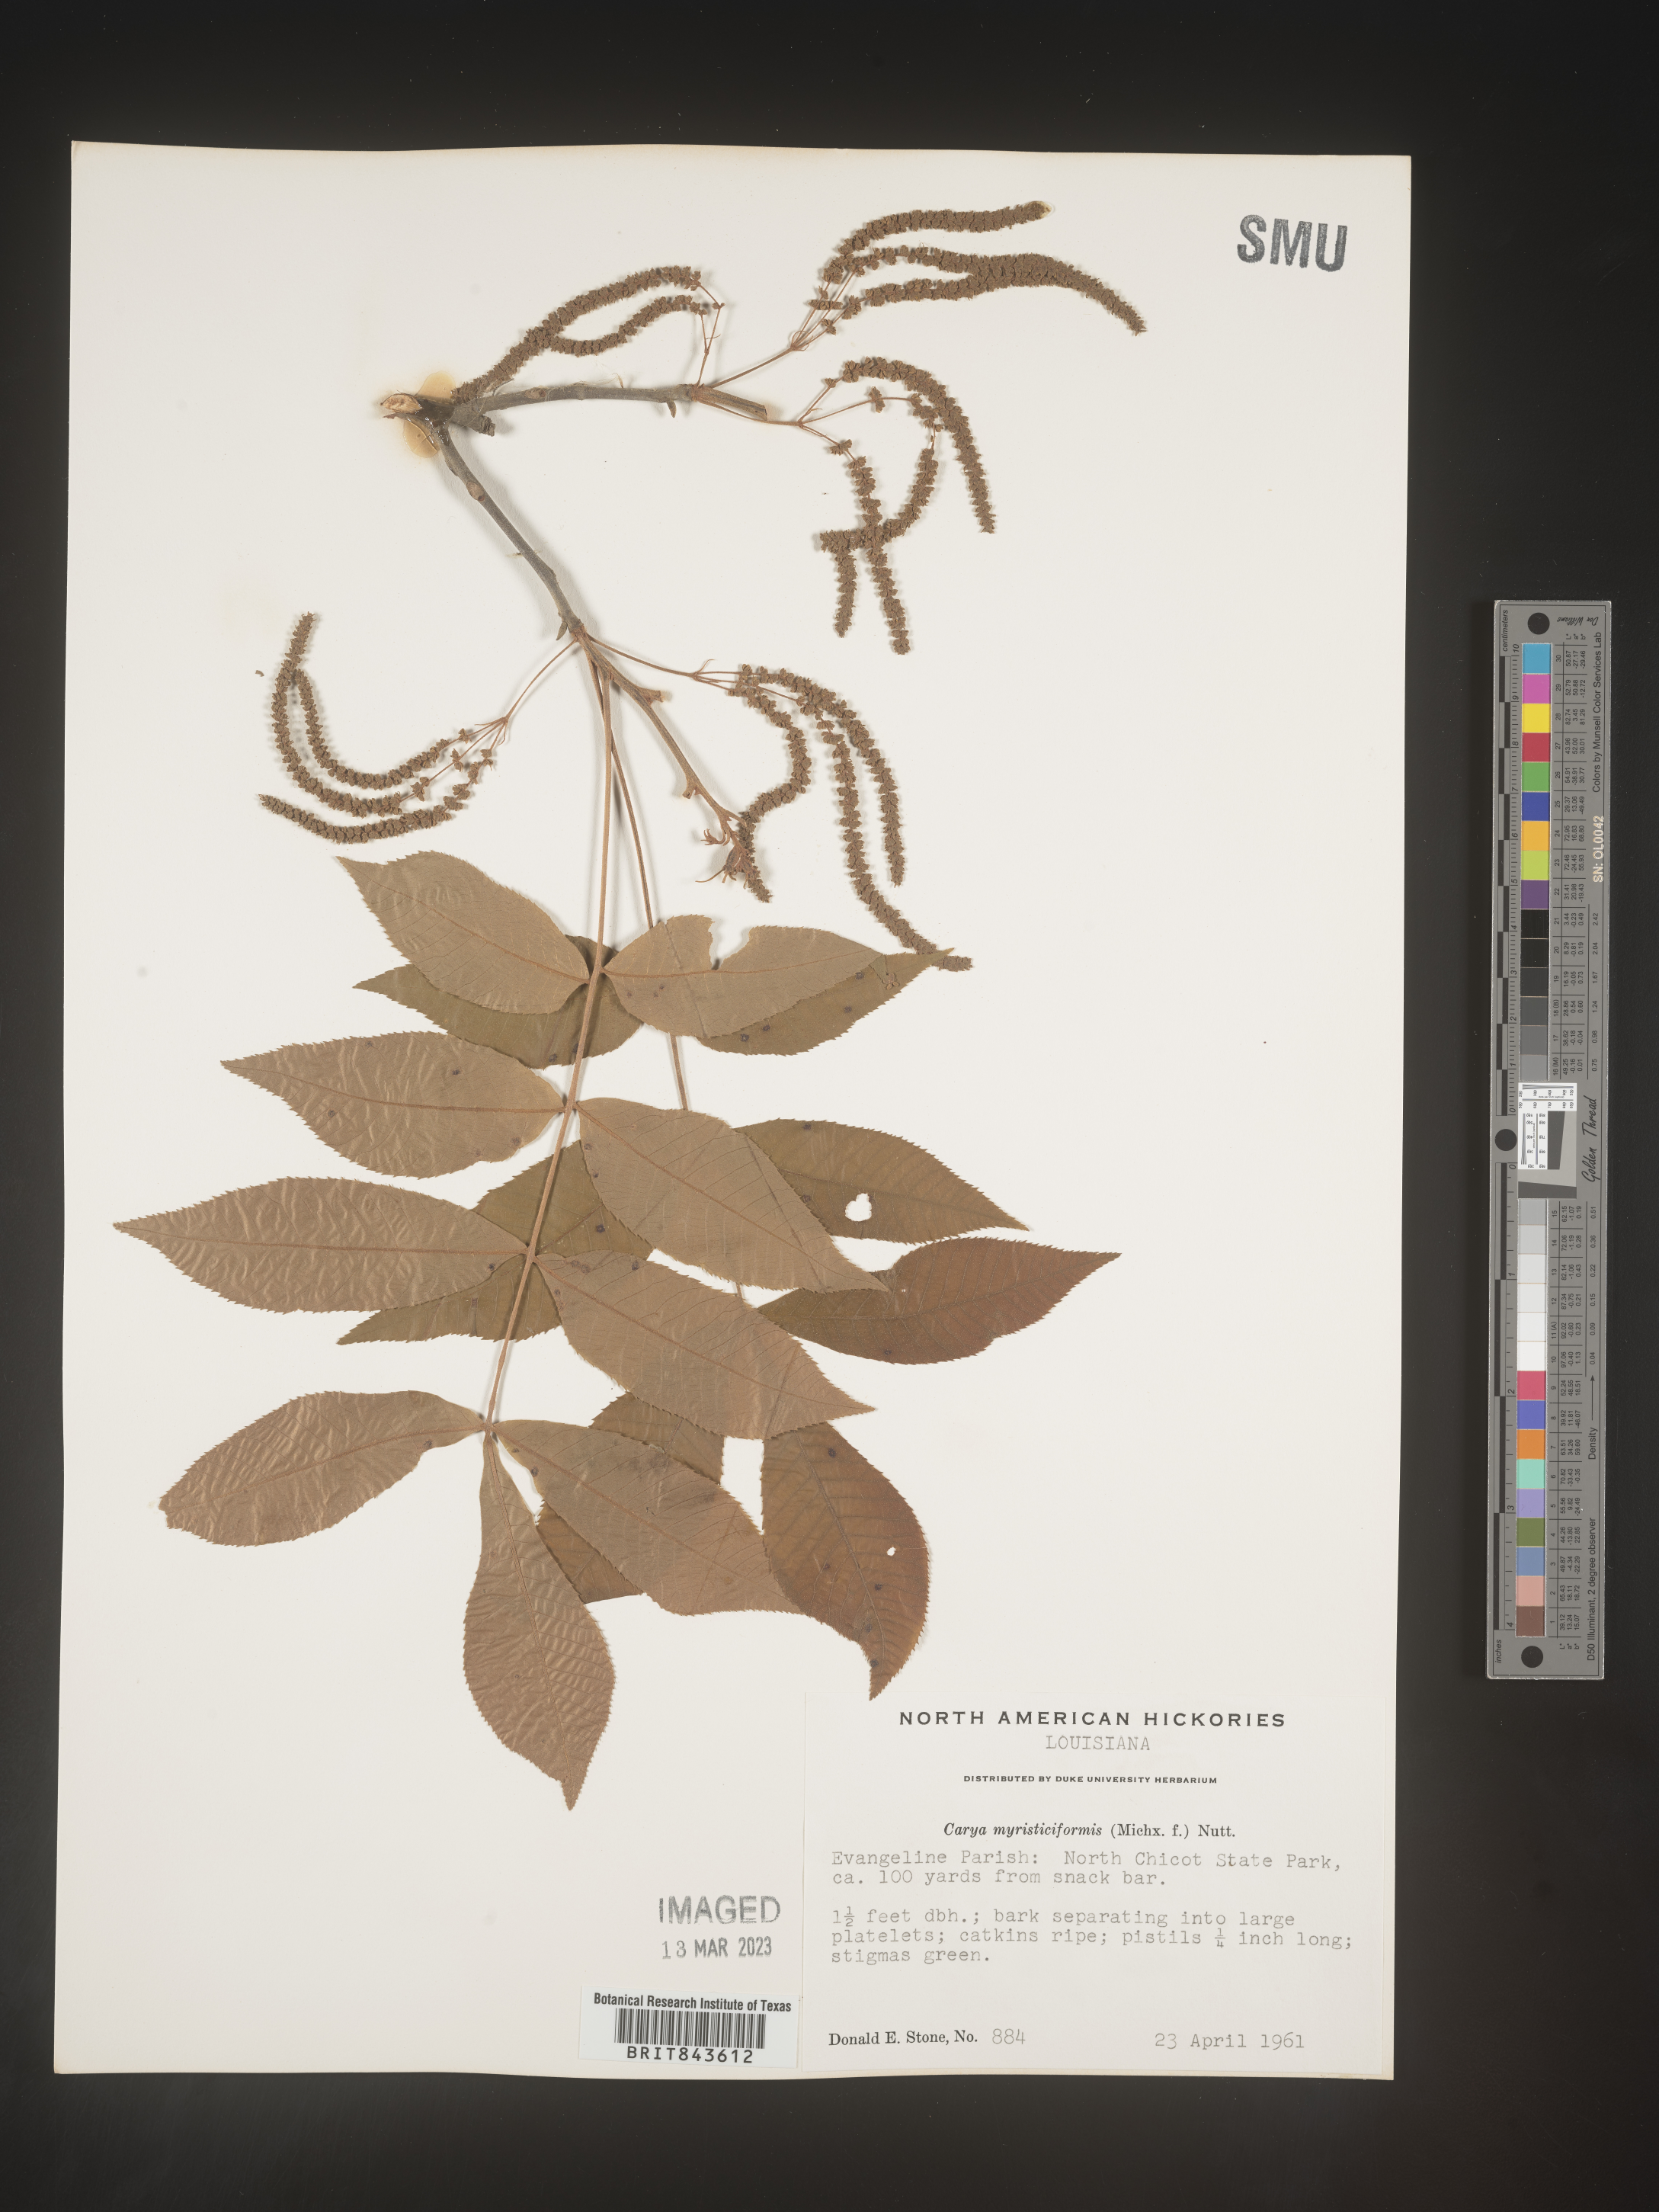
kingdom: Plantae
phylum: Tracheophyta
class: Magnoliopsida
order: Fagales
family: Juglandaceae
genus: Carya
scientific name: Carya myristiciformis
